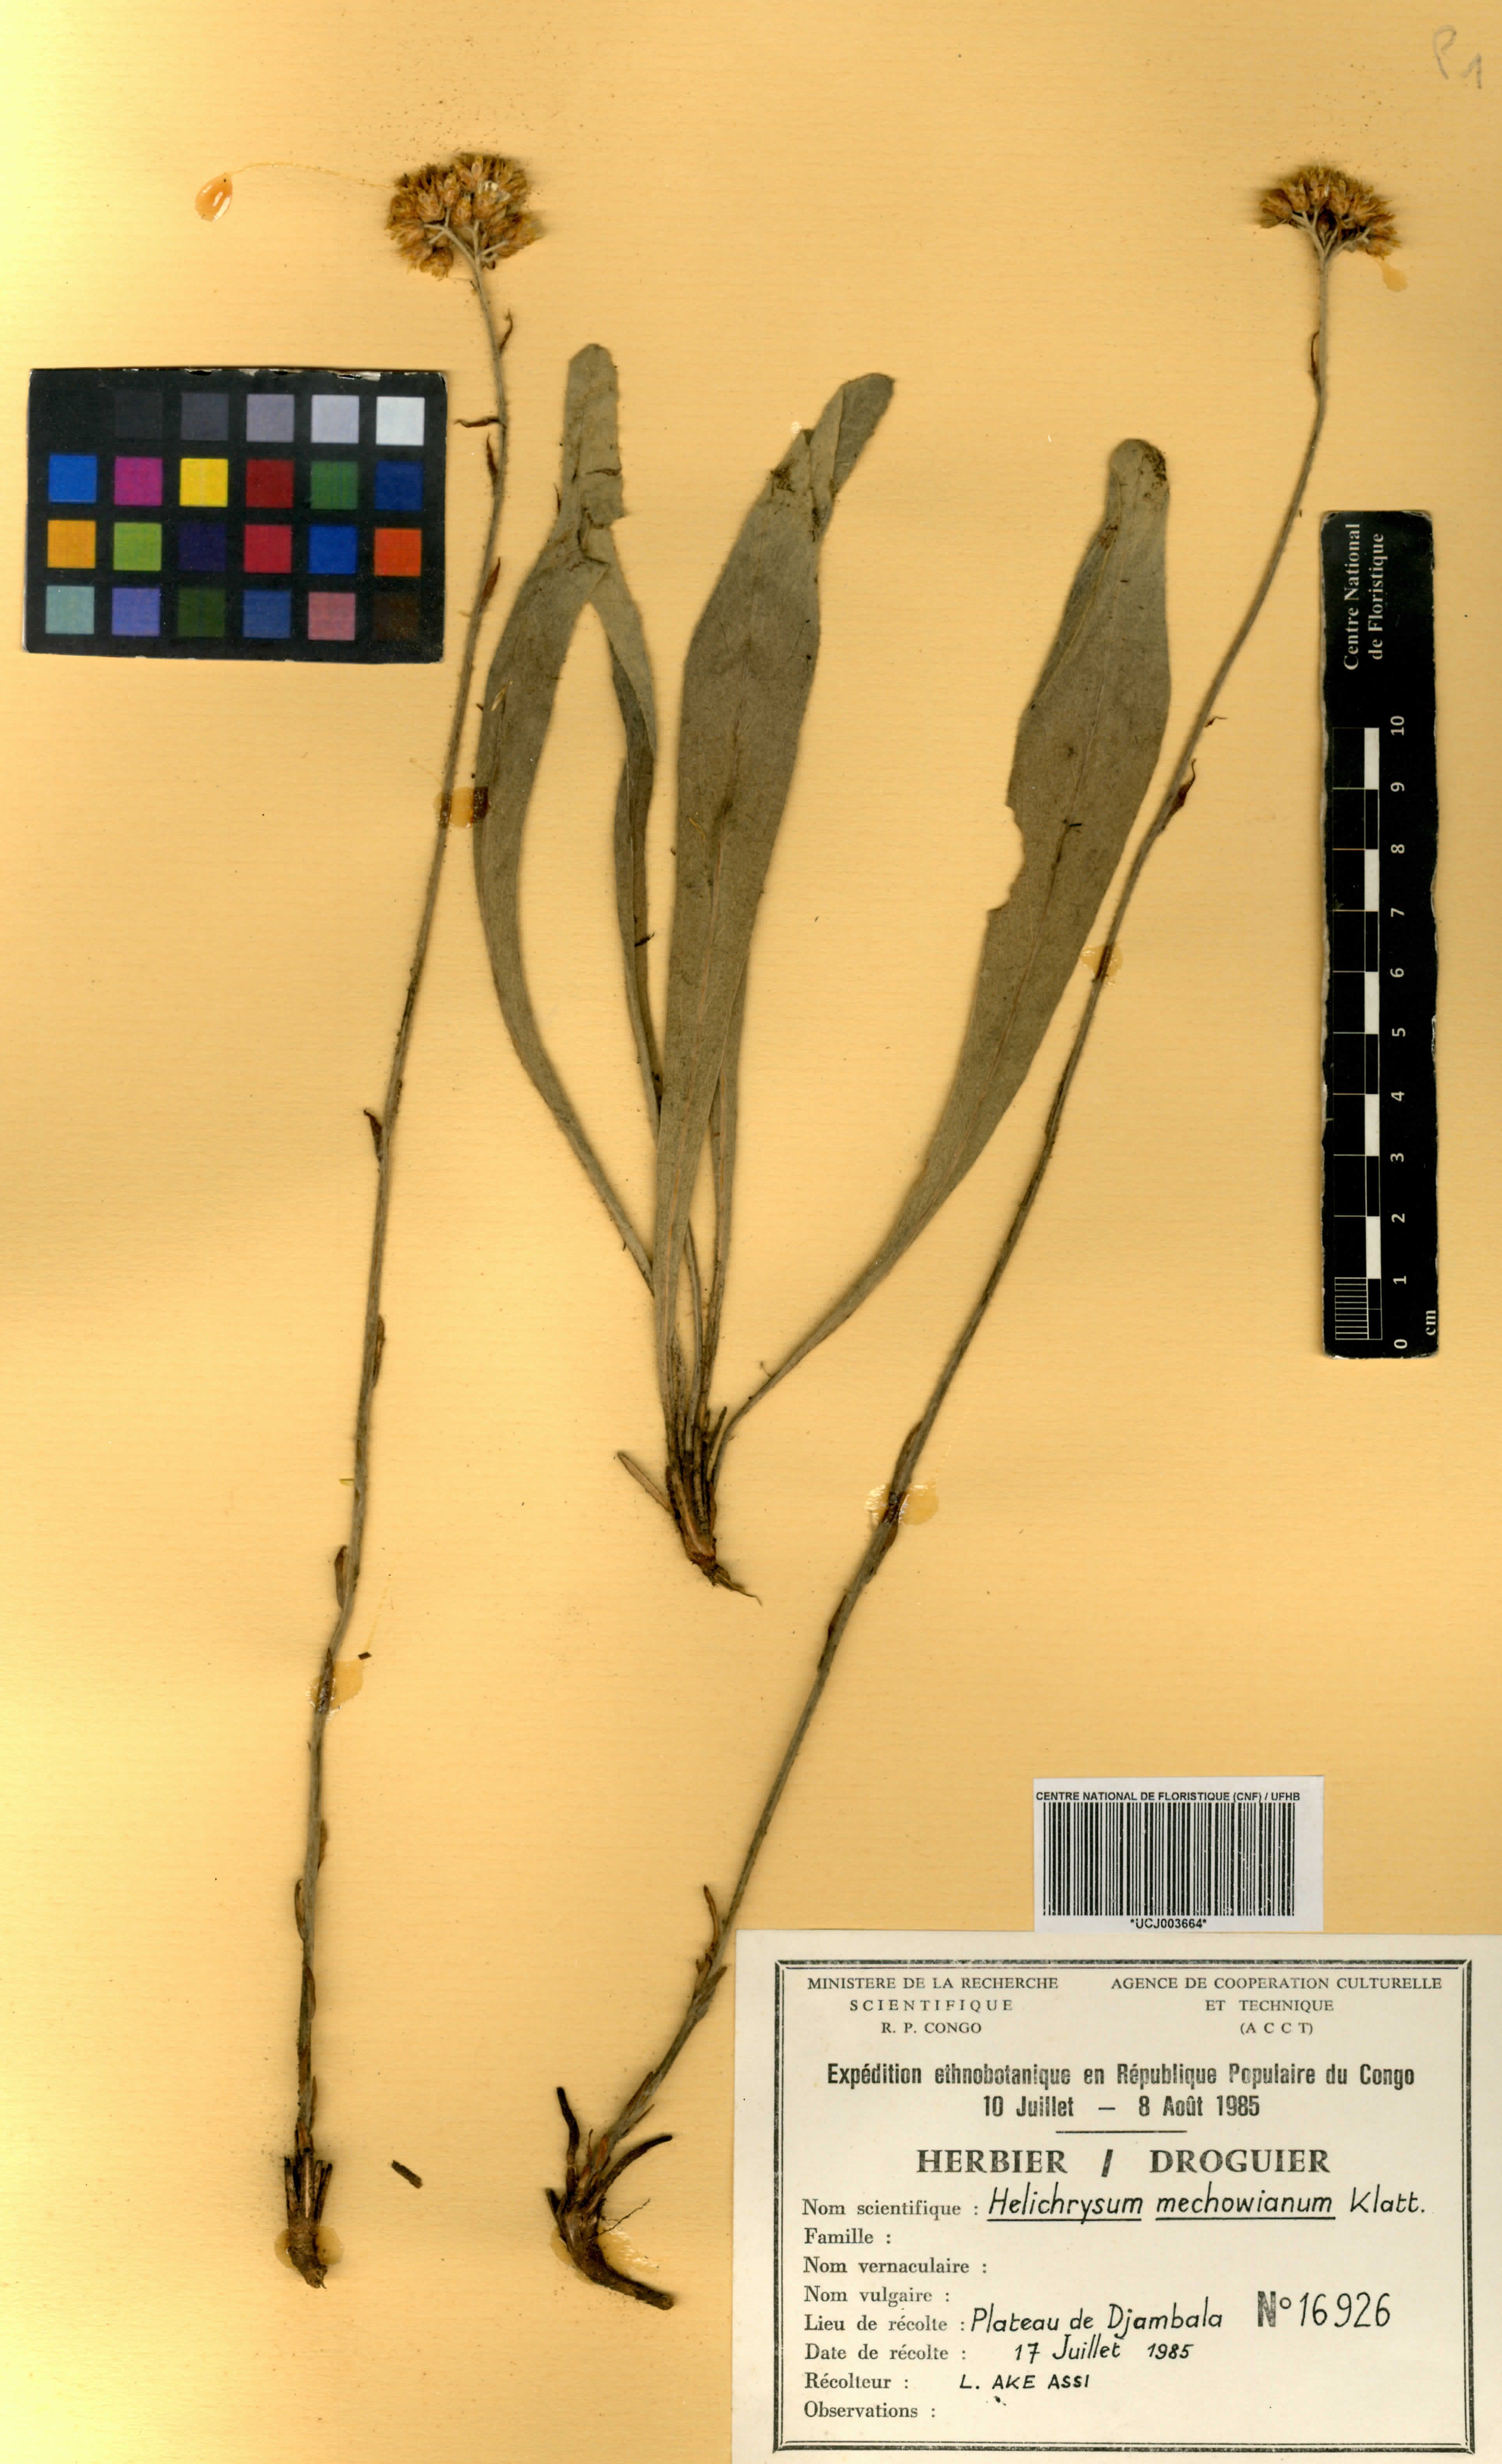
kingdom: Plantae
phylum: Tracheophyta
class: Magnoliopsida
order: Asterales
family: Asteraceae
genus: Helichrysum
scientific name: Helichrysum mechowianum
